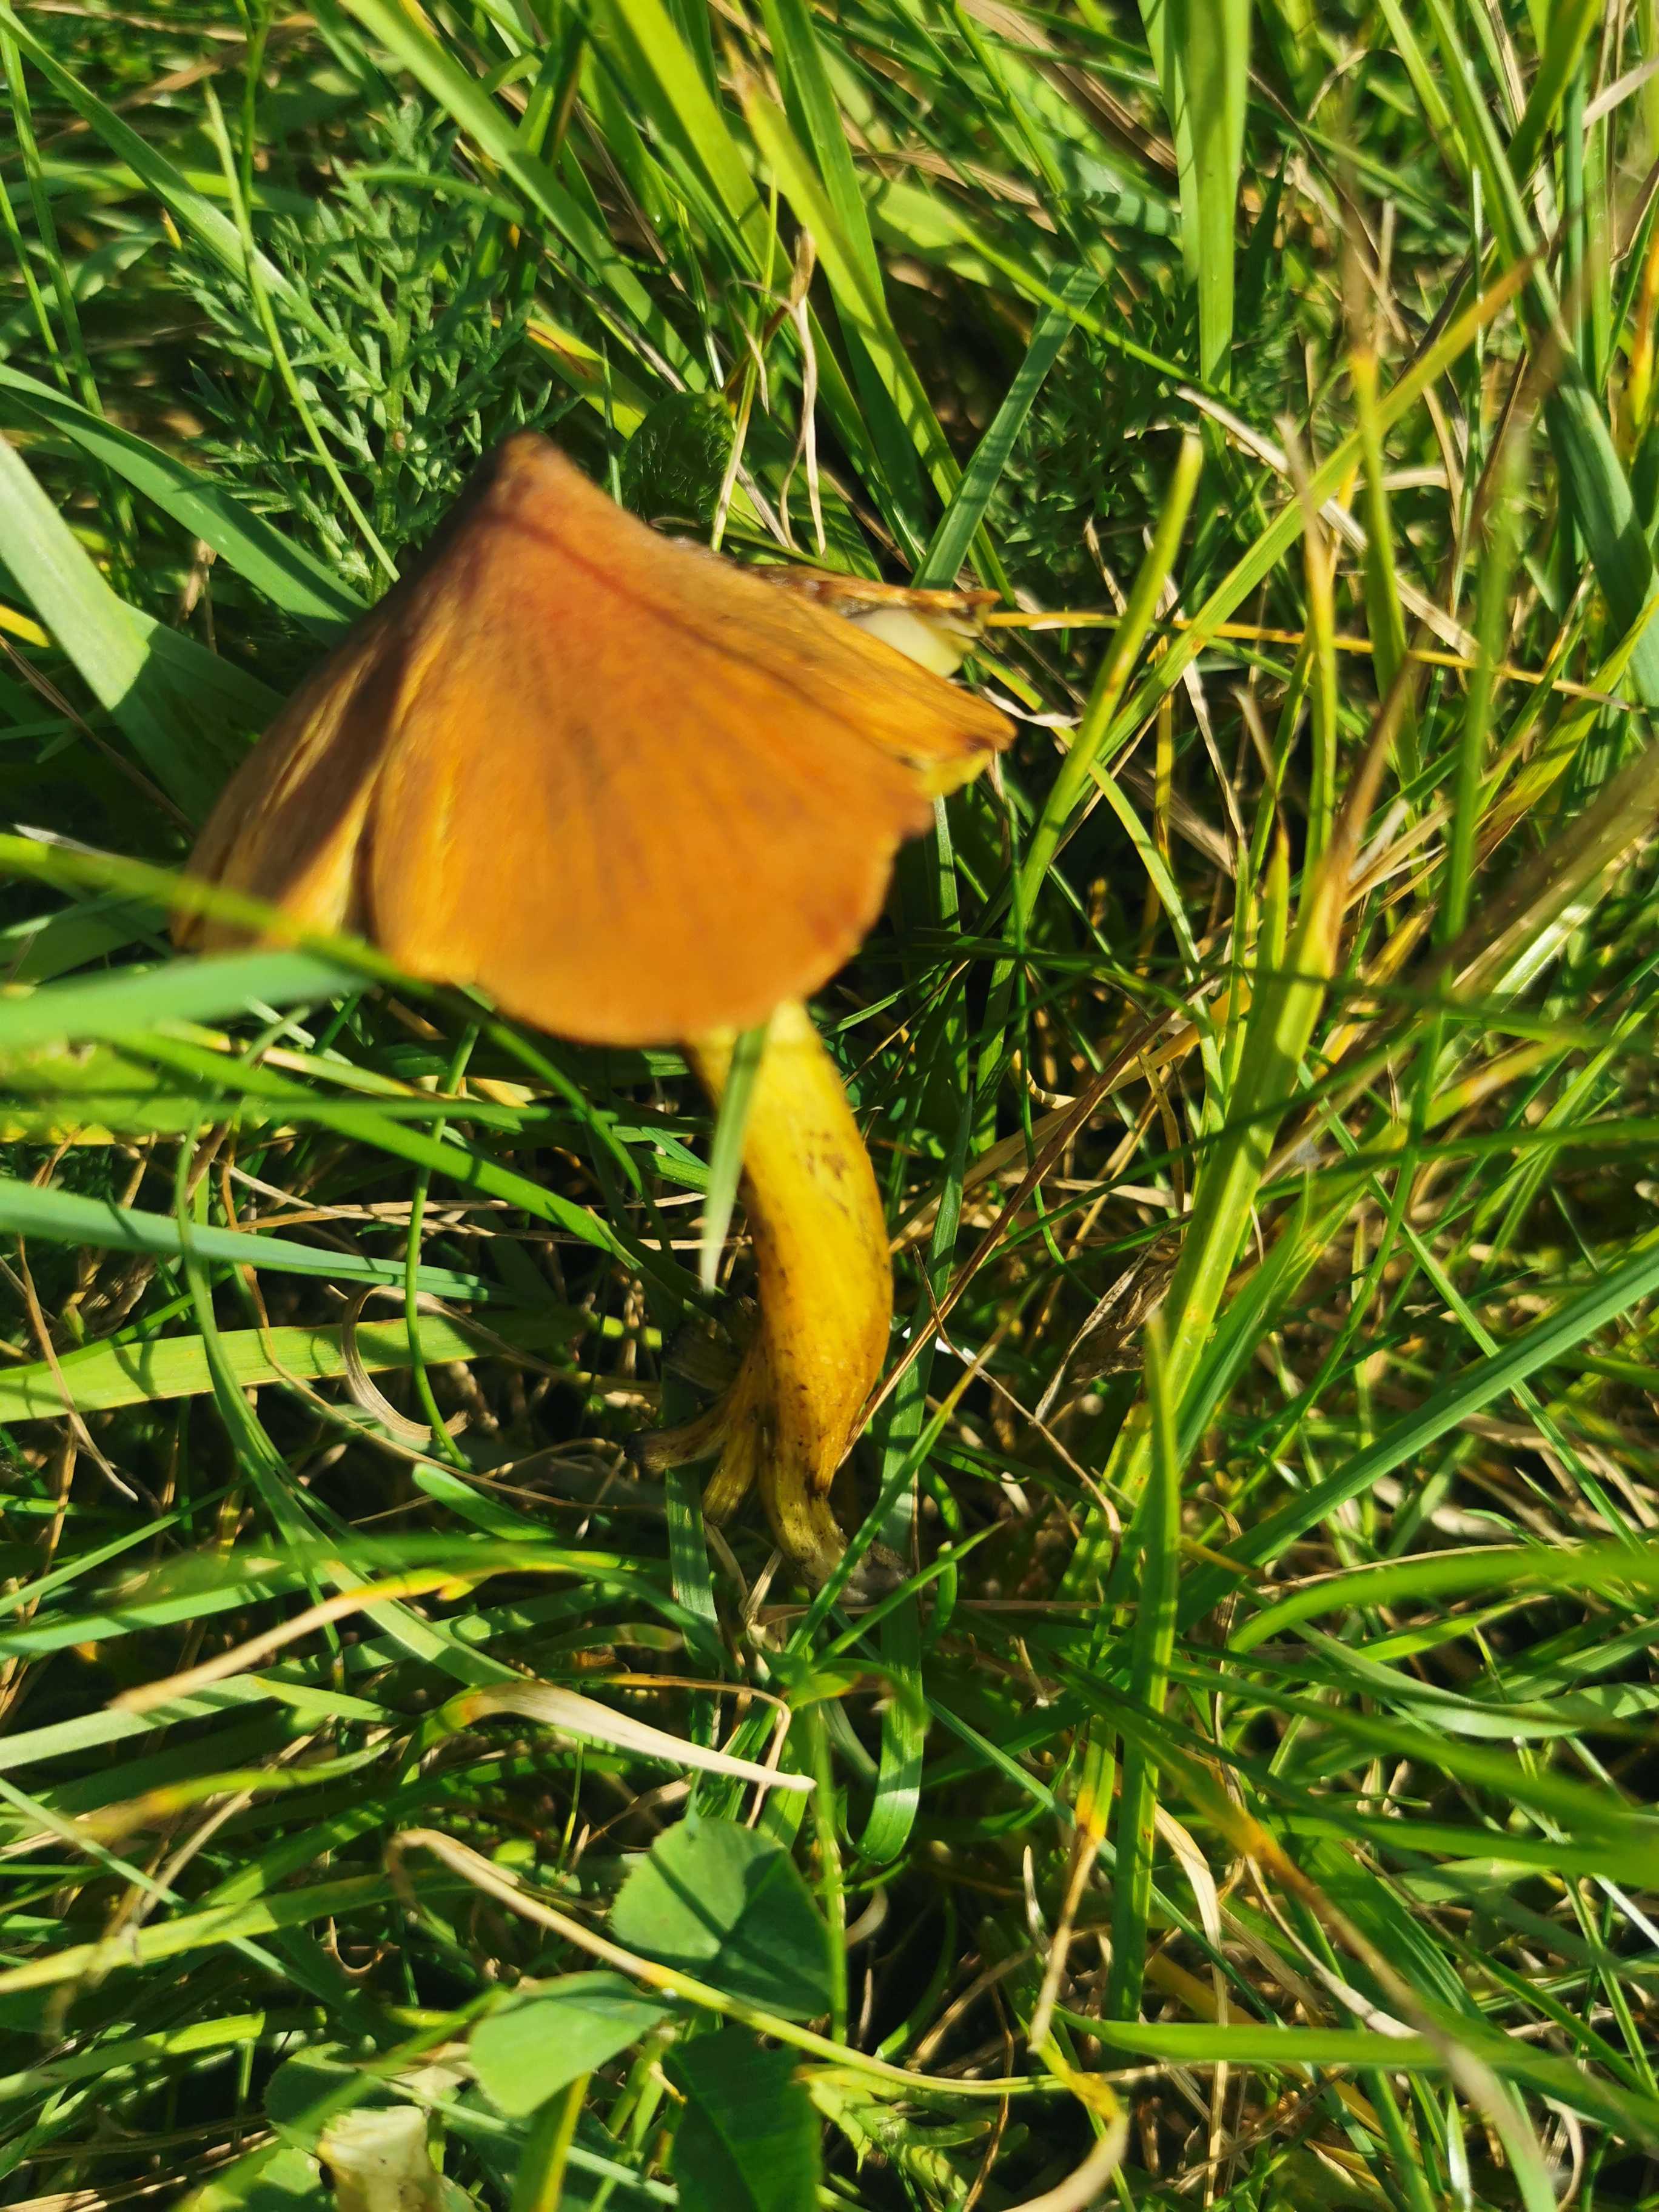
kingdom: Fungi
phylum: Basidiomycota
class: Agaricomycetes
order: Agaricales
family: Hygrophoraceae
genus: Hygrocybe
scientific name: Hygrocybe conica
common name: kegle-vokshat
